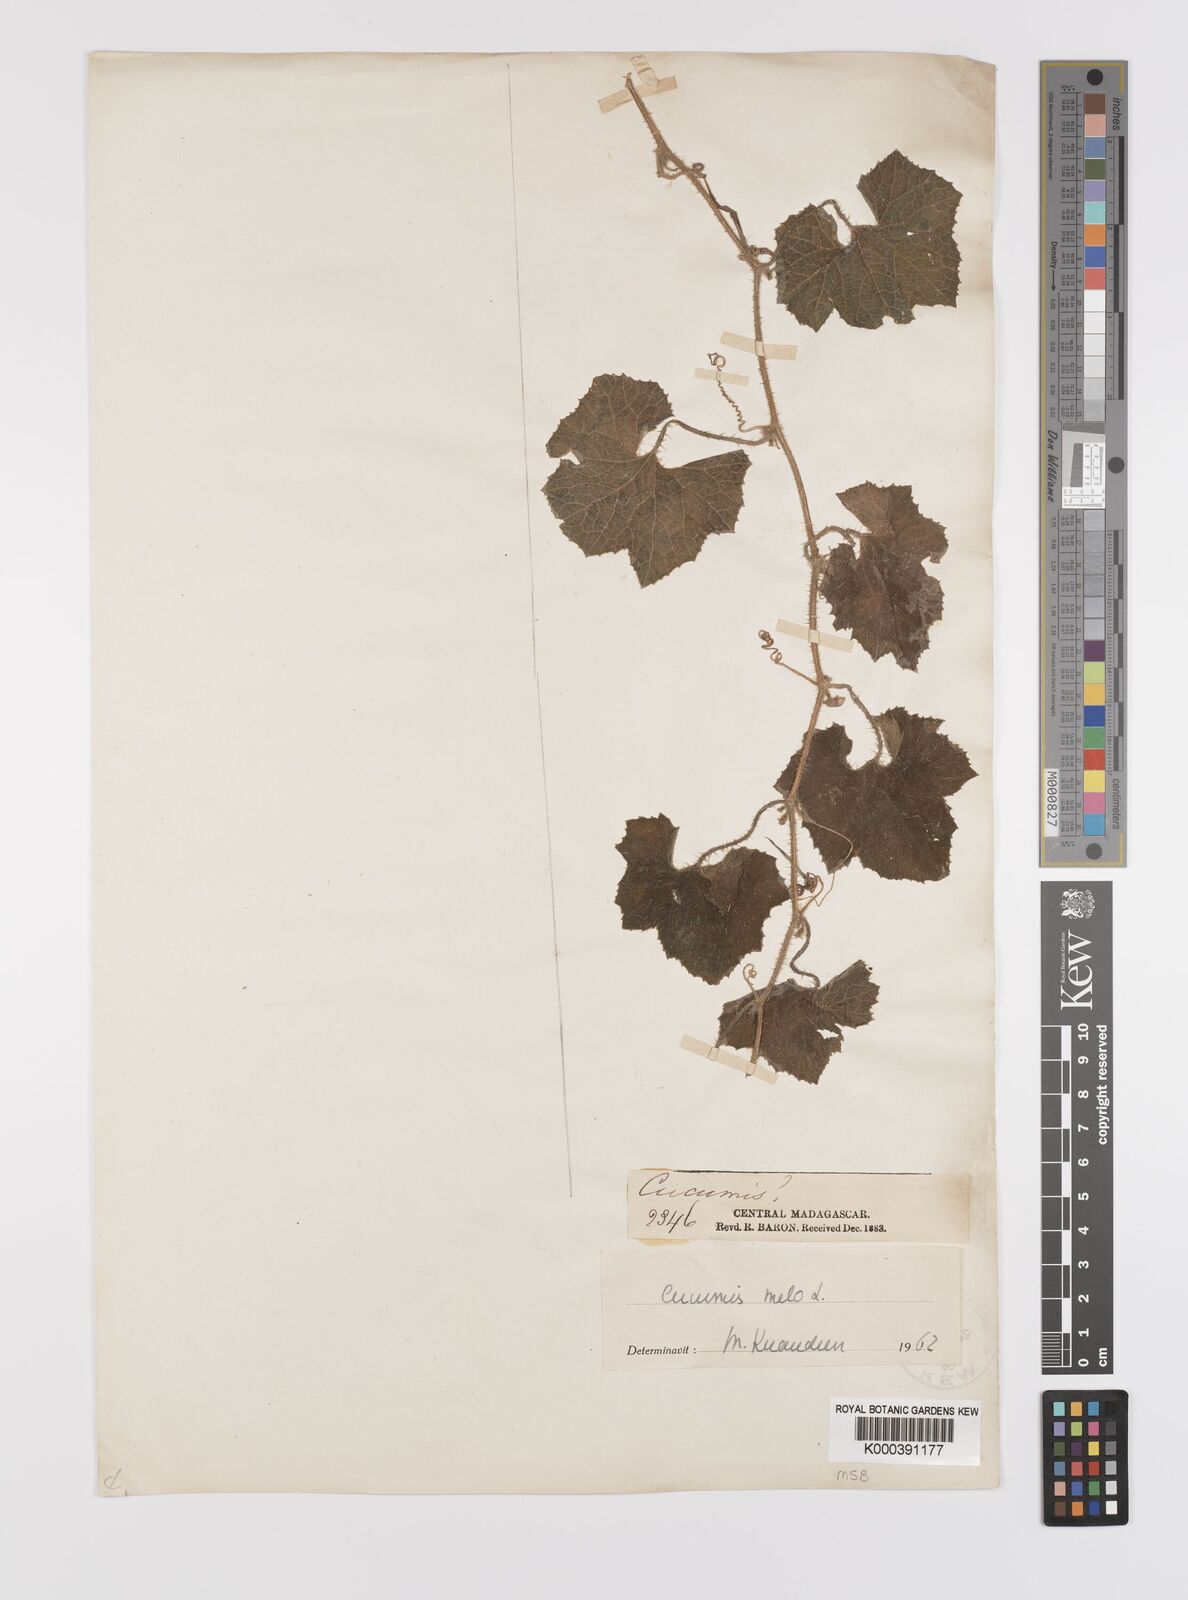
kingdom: Plantae
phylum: Tracheophyta
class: Magnoliopsida
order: Cucurbitales
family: Cucurbitaceae
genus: Cucumis
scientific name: Cucumis sacleuxii
